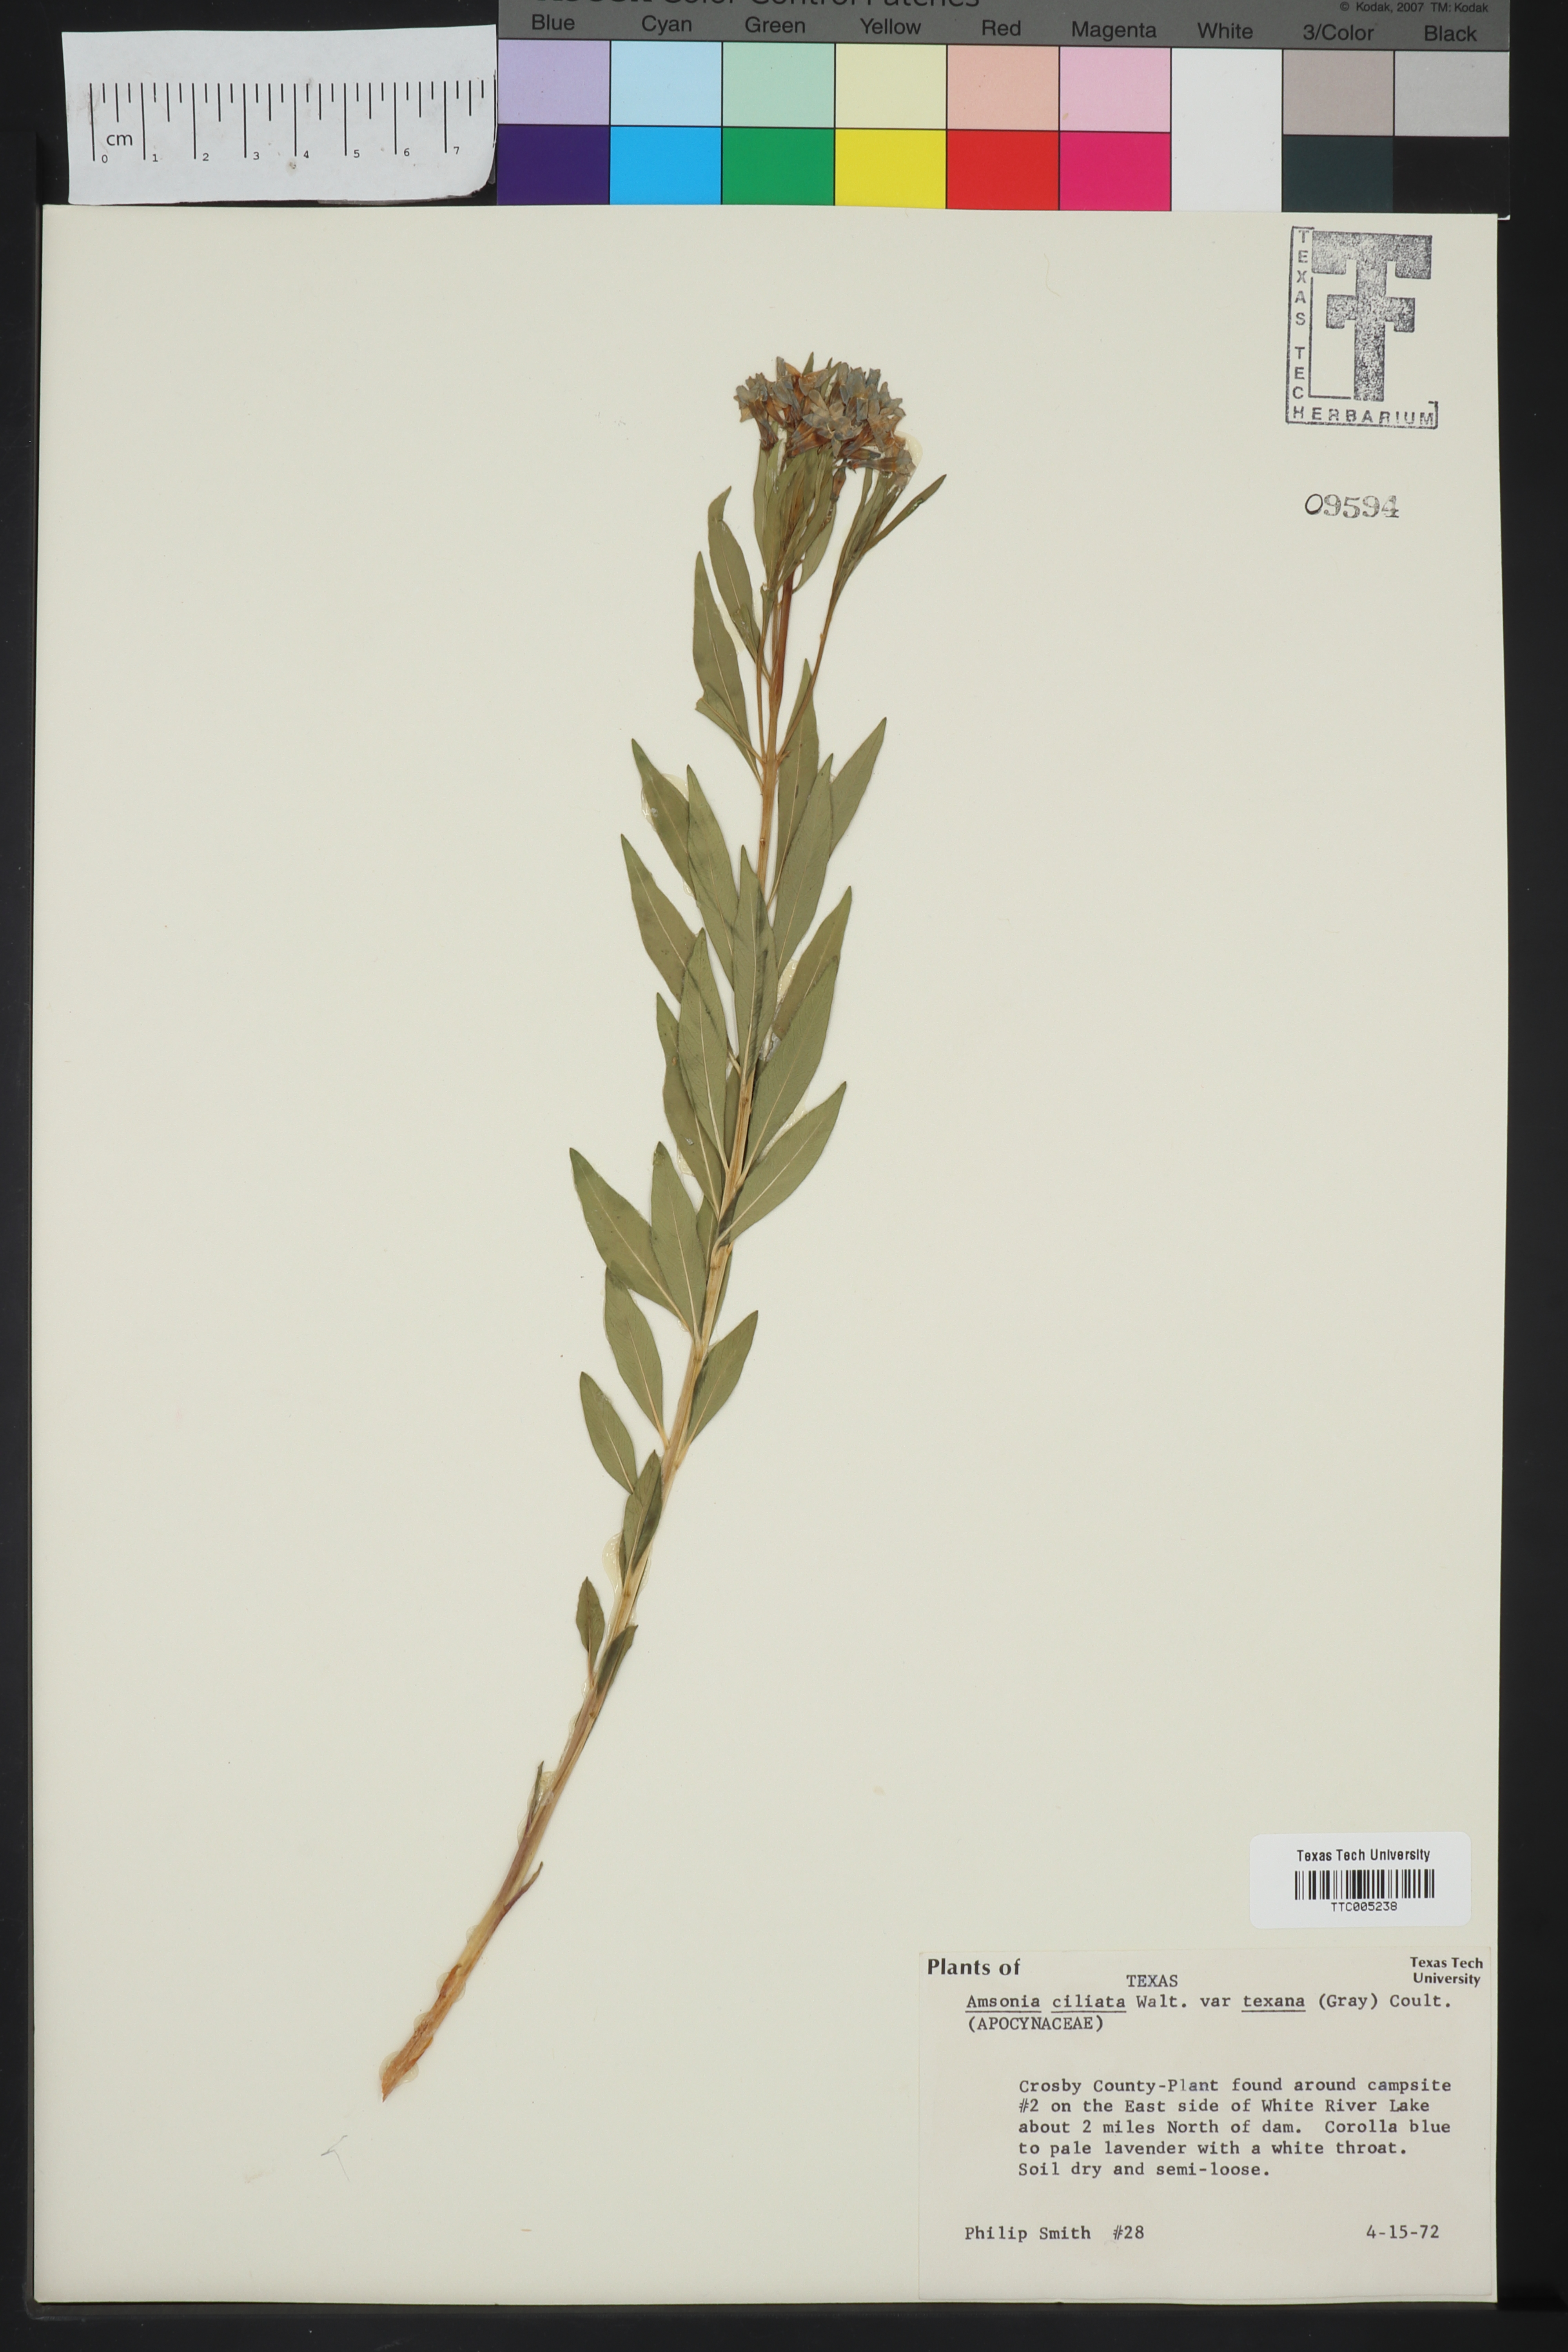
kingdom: Plantae
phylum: Tracheophyta
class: Magnoliopsida
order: Gentianales
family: Apocynaceae
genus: Amsonia
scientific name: Amsonia ciliata
